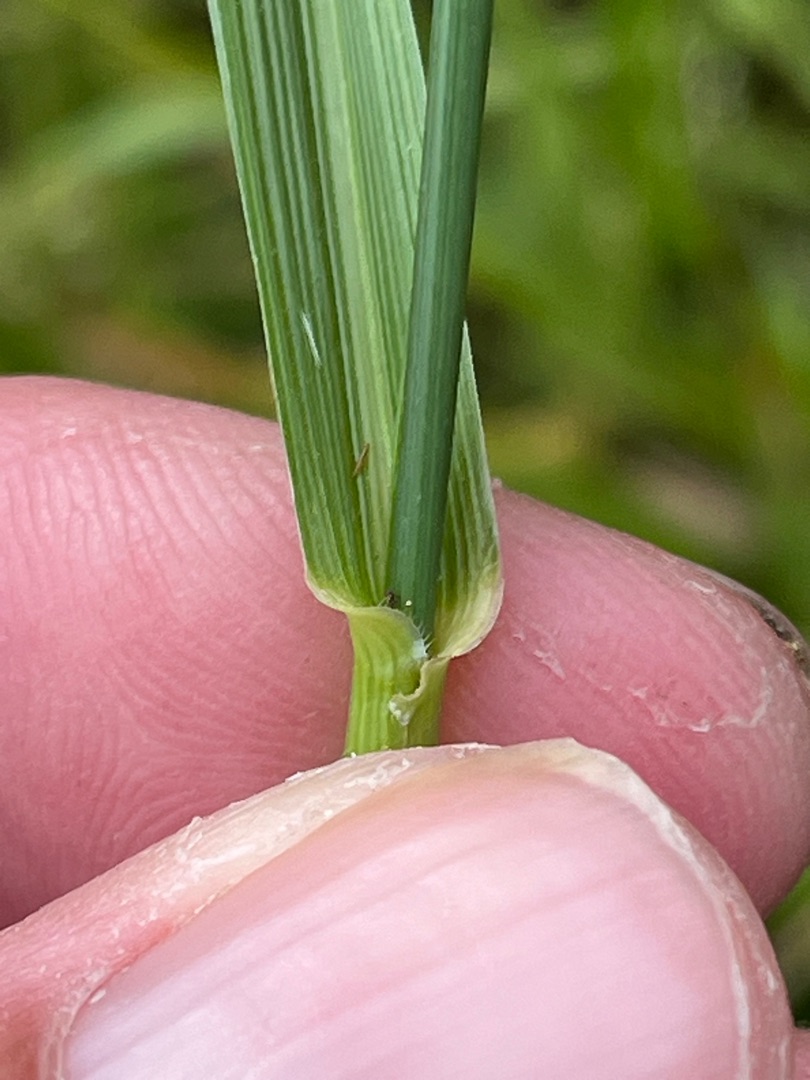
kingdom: Plantae
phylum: Tracheophyta
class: Liliopsida
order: Poales
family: Poaceae
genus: Lolium
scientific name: Lolium arundinaceum
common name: Strand-svingel
